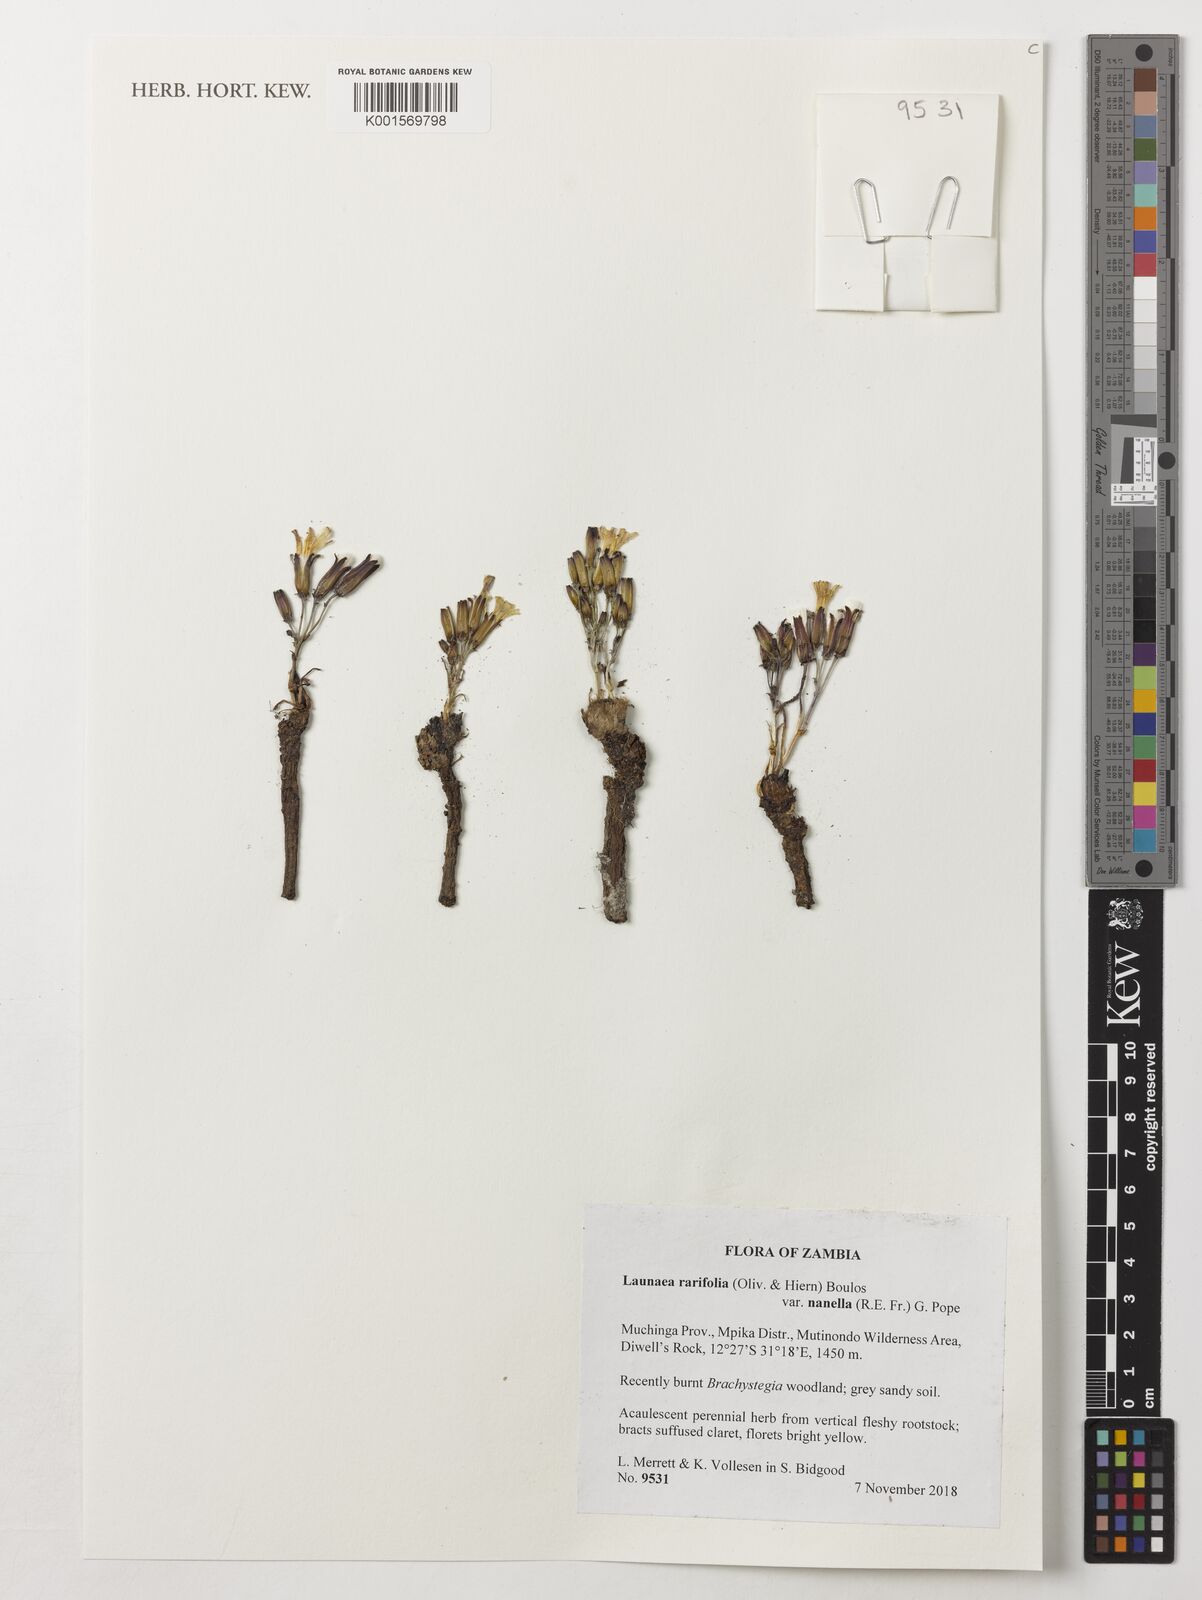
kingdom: Plantae
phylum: Tracheophyta
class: Magnoliopsida
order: Asterales
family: Asteraceae
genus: Launaea
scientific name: Launaea cabrae
